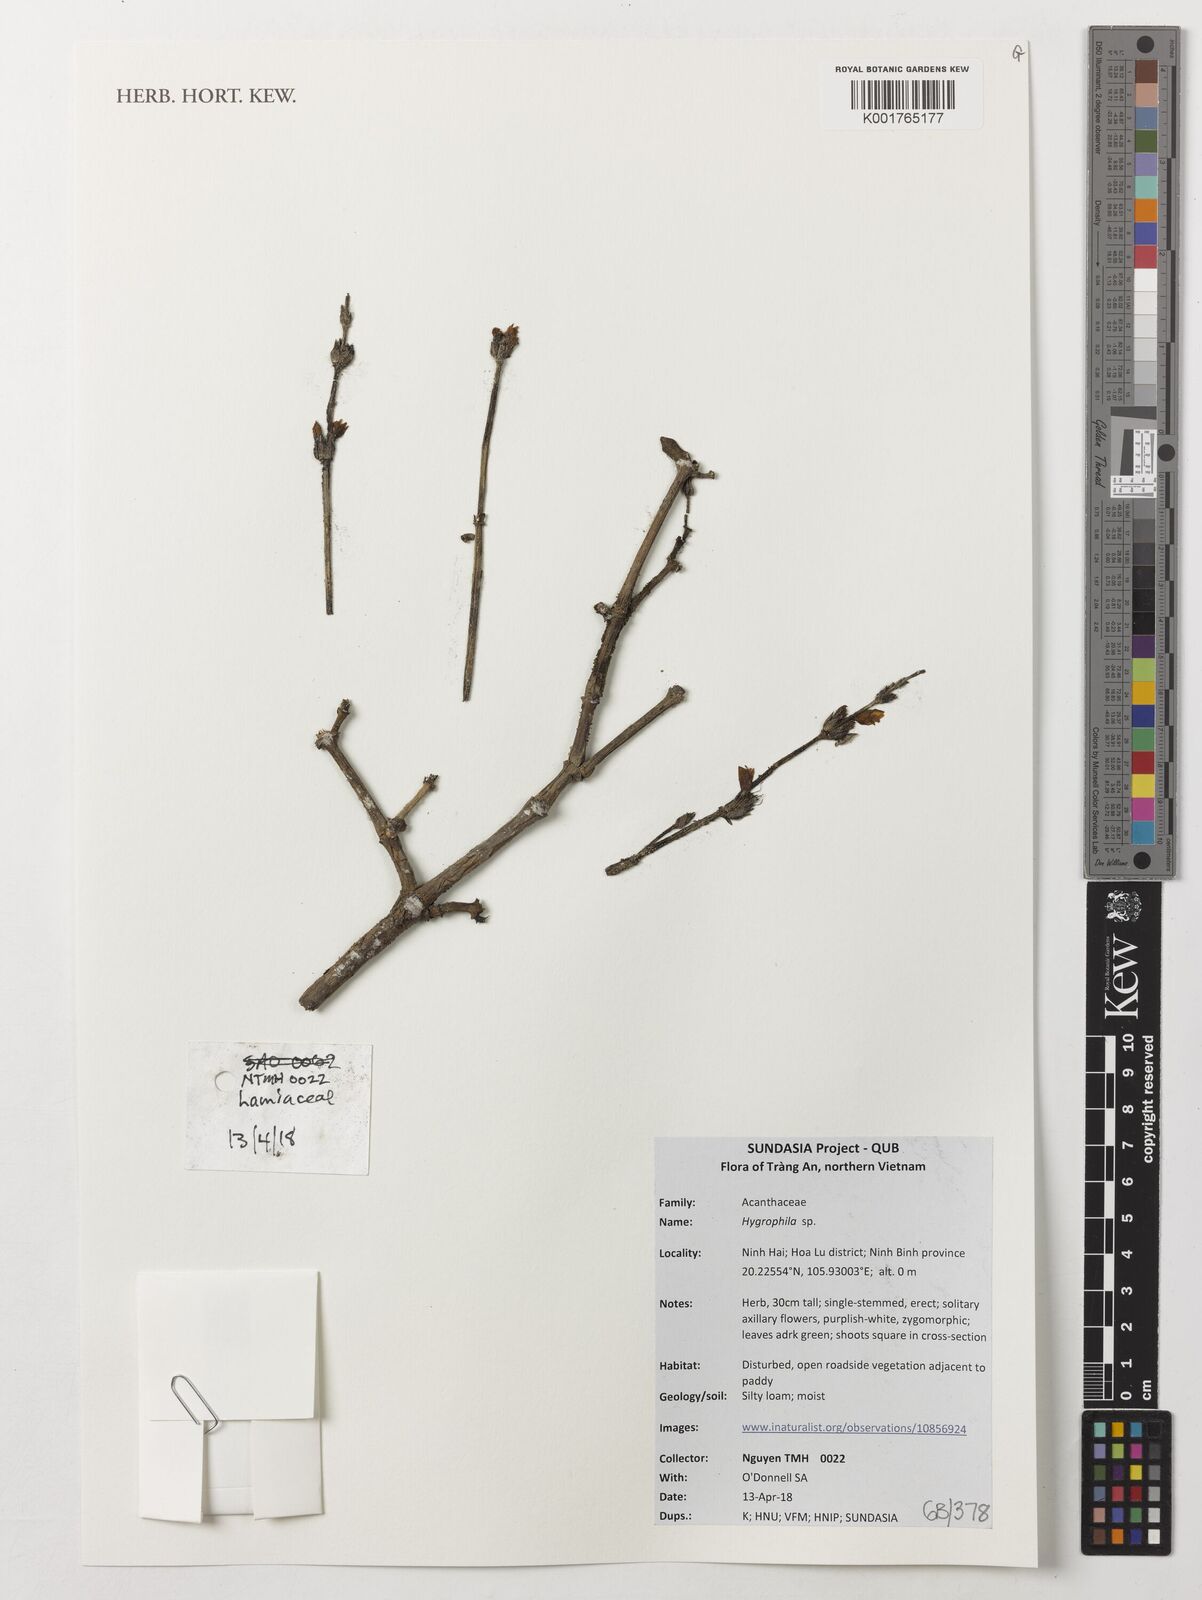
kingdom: Plantae
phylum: Tracheophyta
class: Magnoliopsida
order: Lamiales
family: Acanthaceae
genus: Hygrophila
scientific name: Hygrophila
